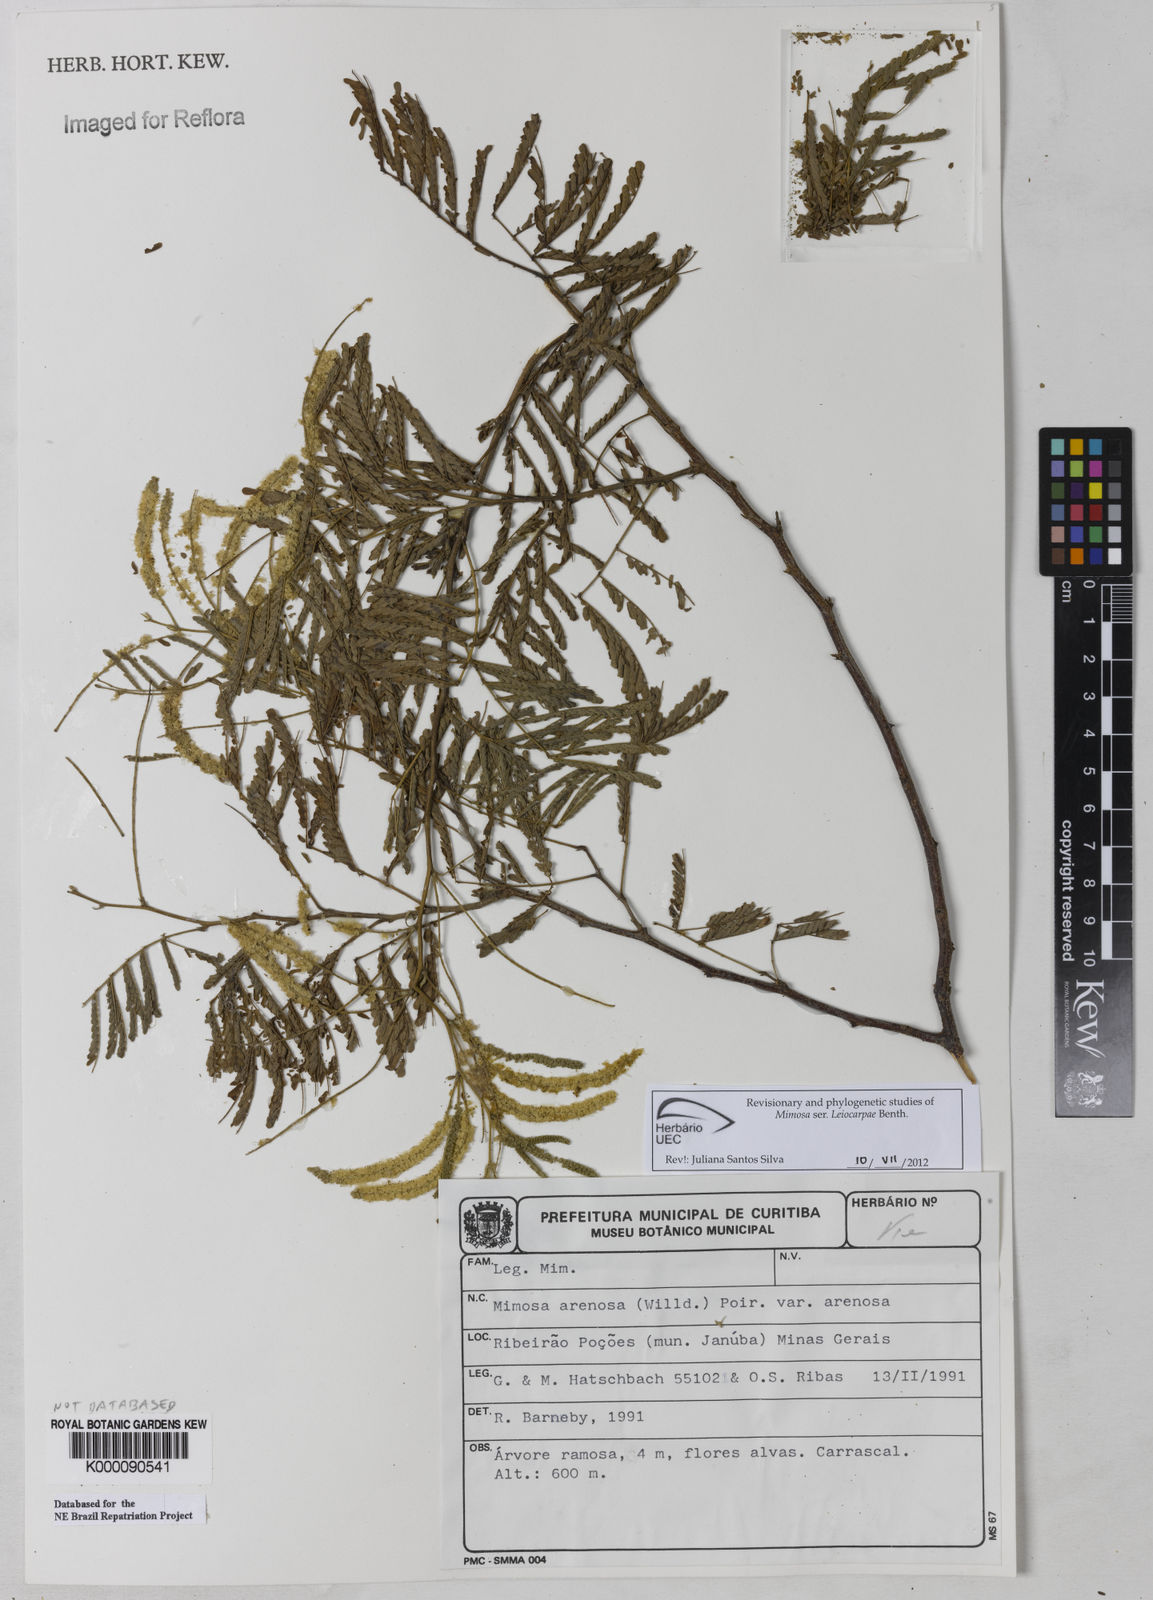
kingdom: Plantae
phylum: Tracheophyta
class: Magnoliopsida
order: Fabales
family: Fabaceae
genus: Mimosa
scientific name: Mimosa arenosa
